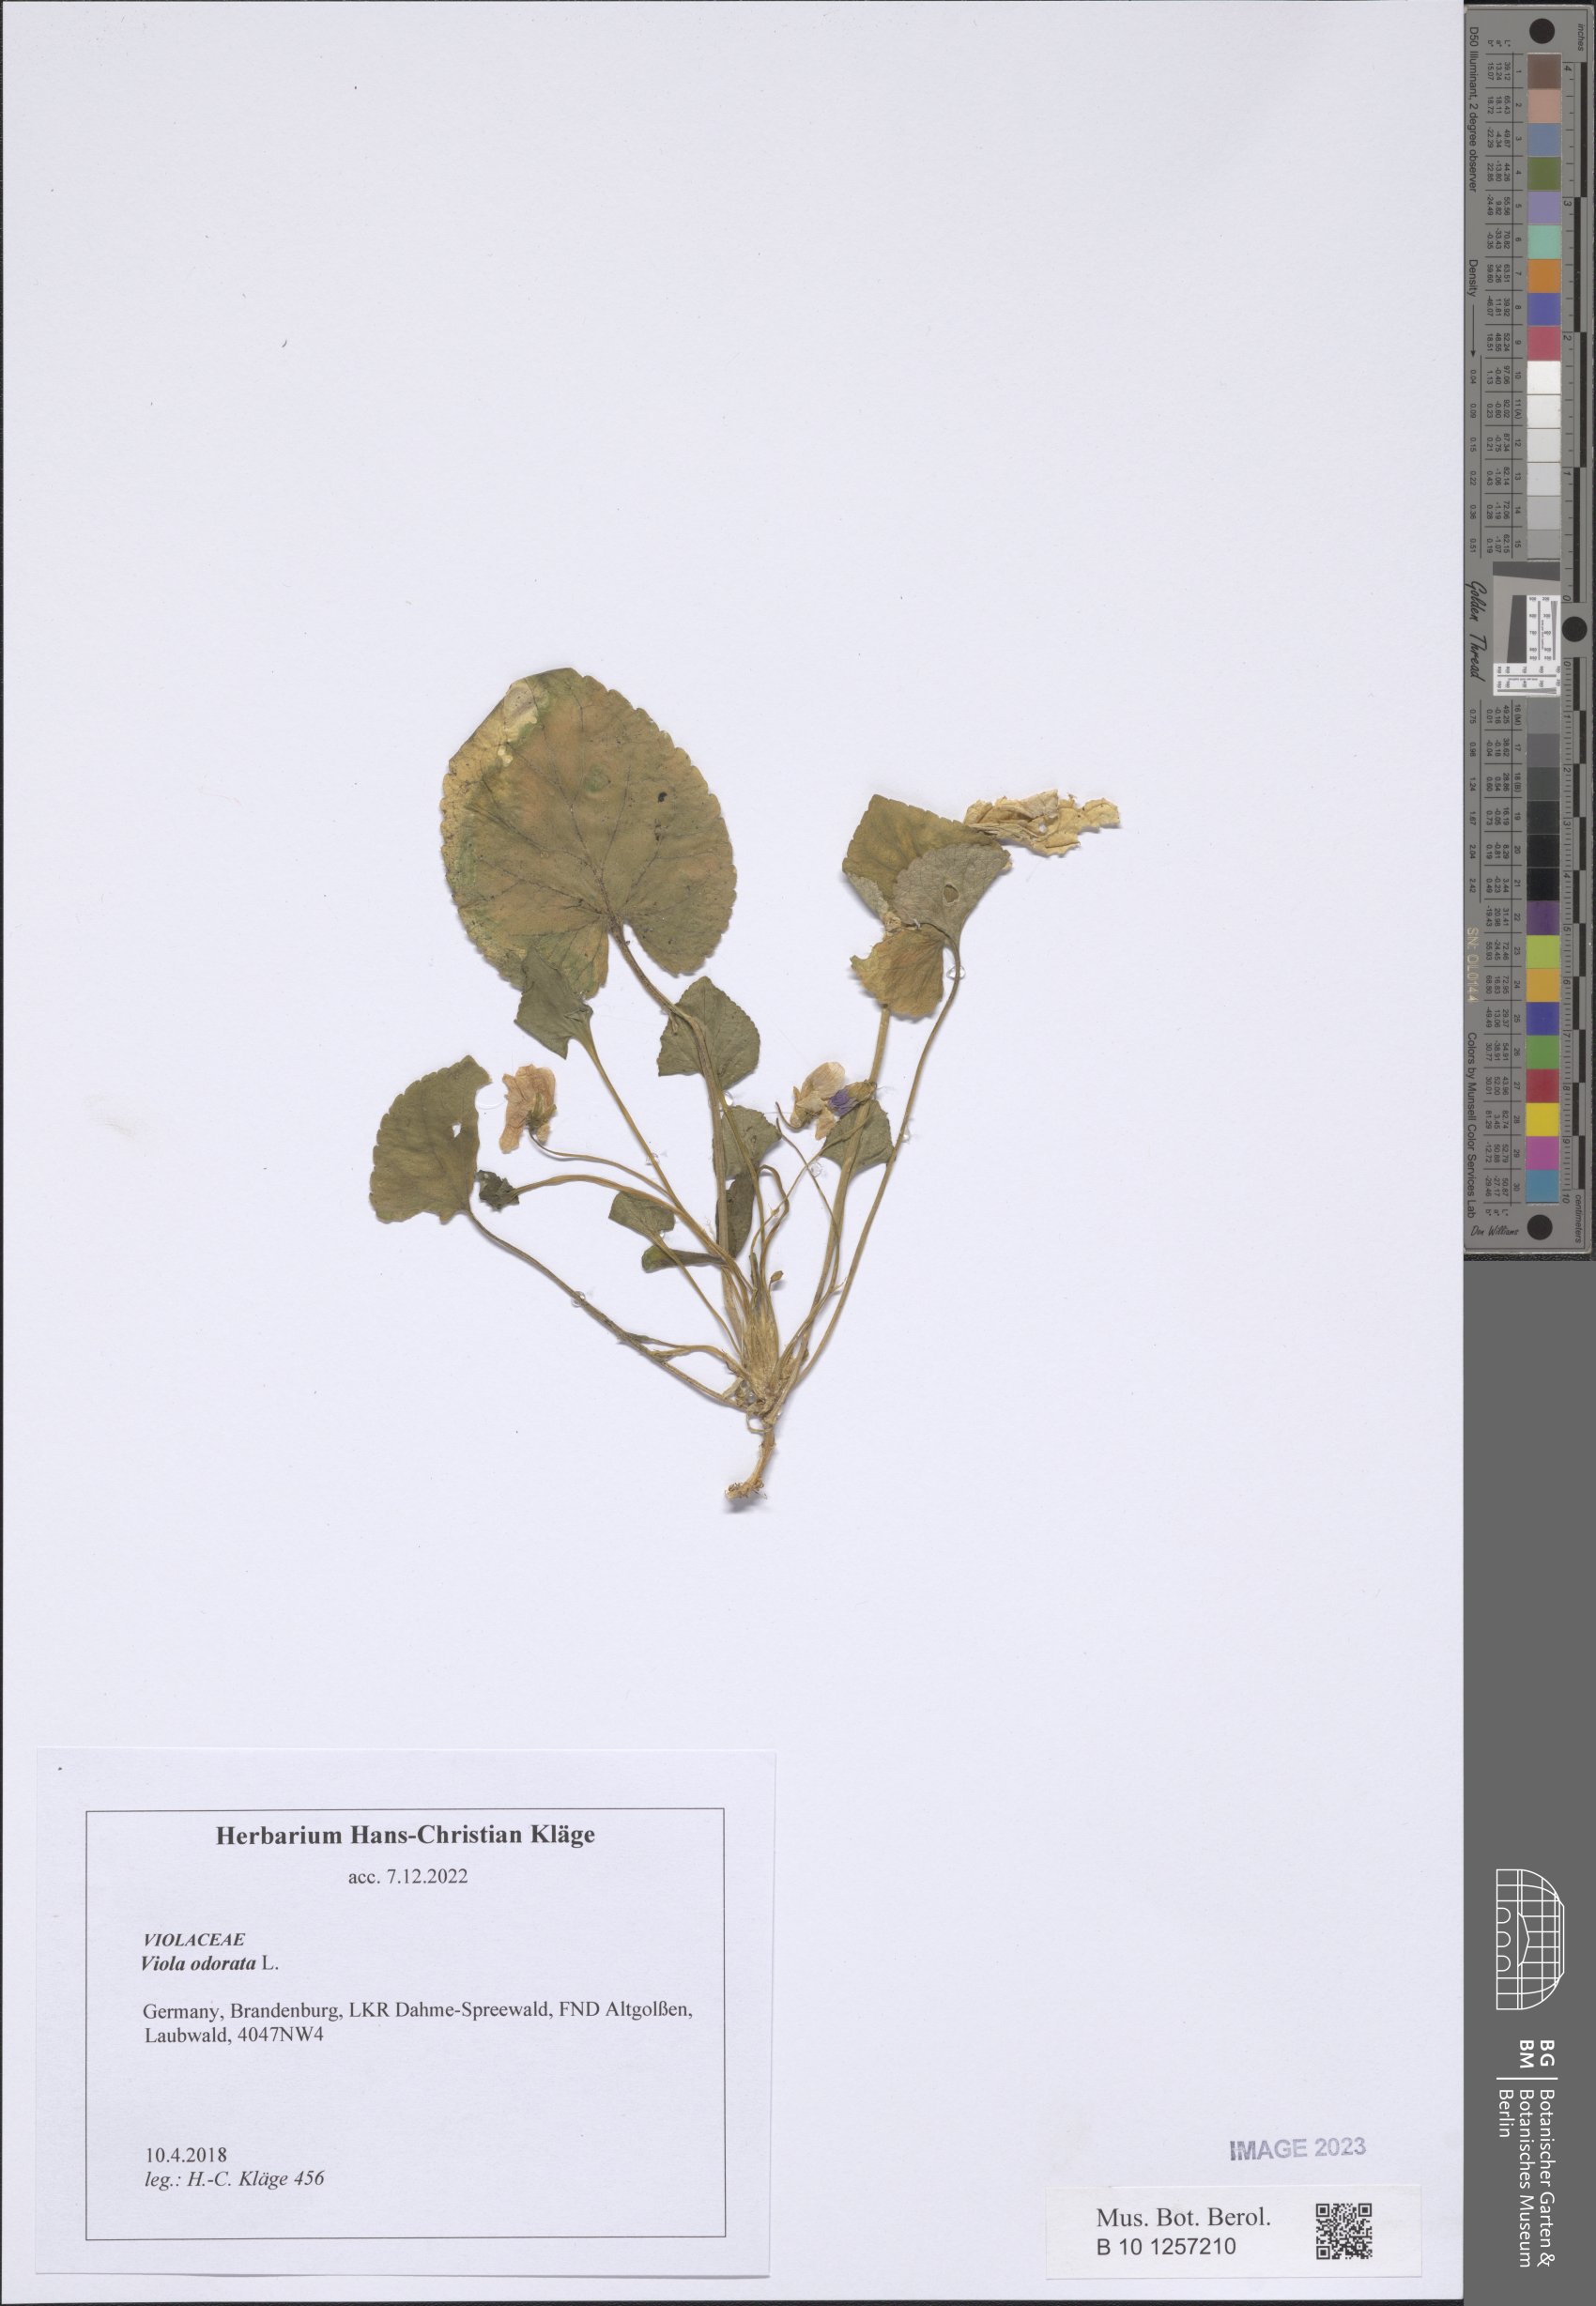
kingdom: Plantae
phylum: Tracheophyta
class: Magnoliopsida
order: Malpighiales
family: Violaceae
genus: Viola
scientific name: Viola odorata
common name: Sweet violet
